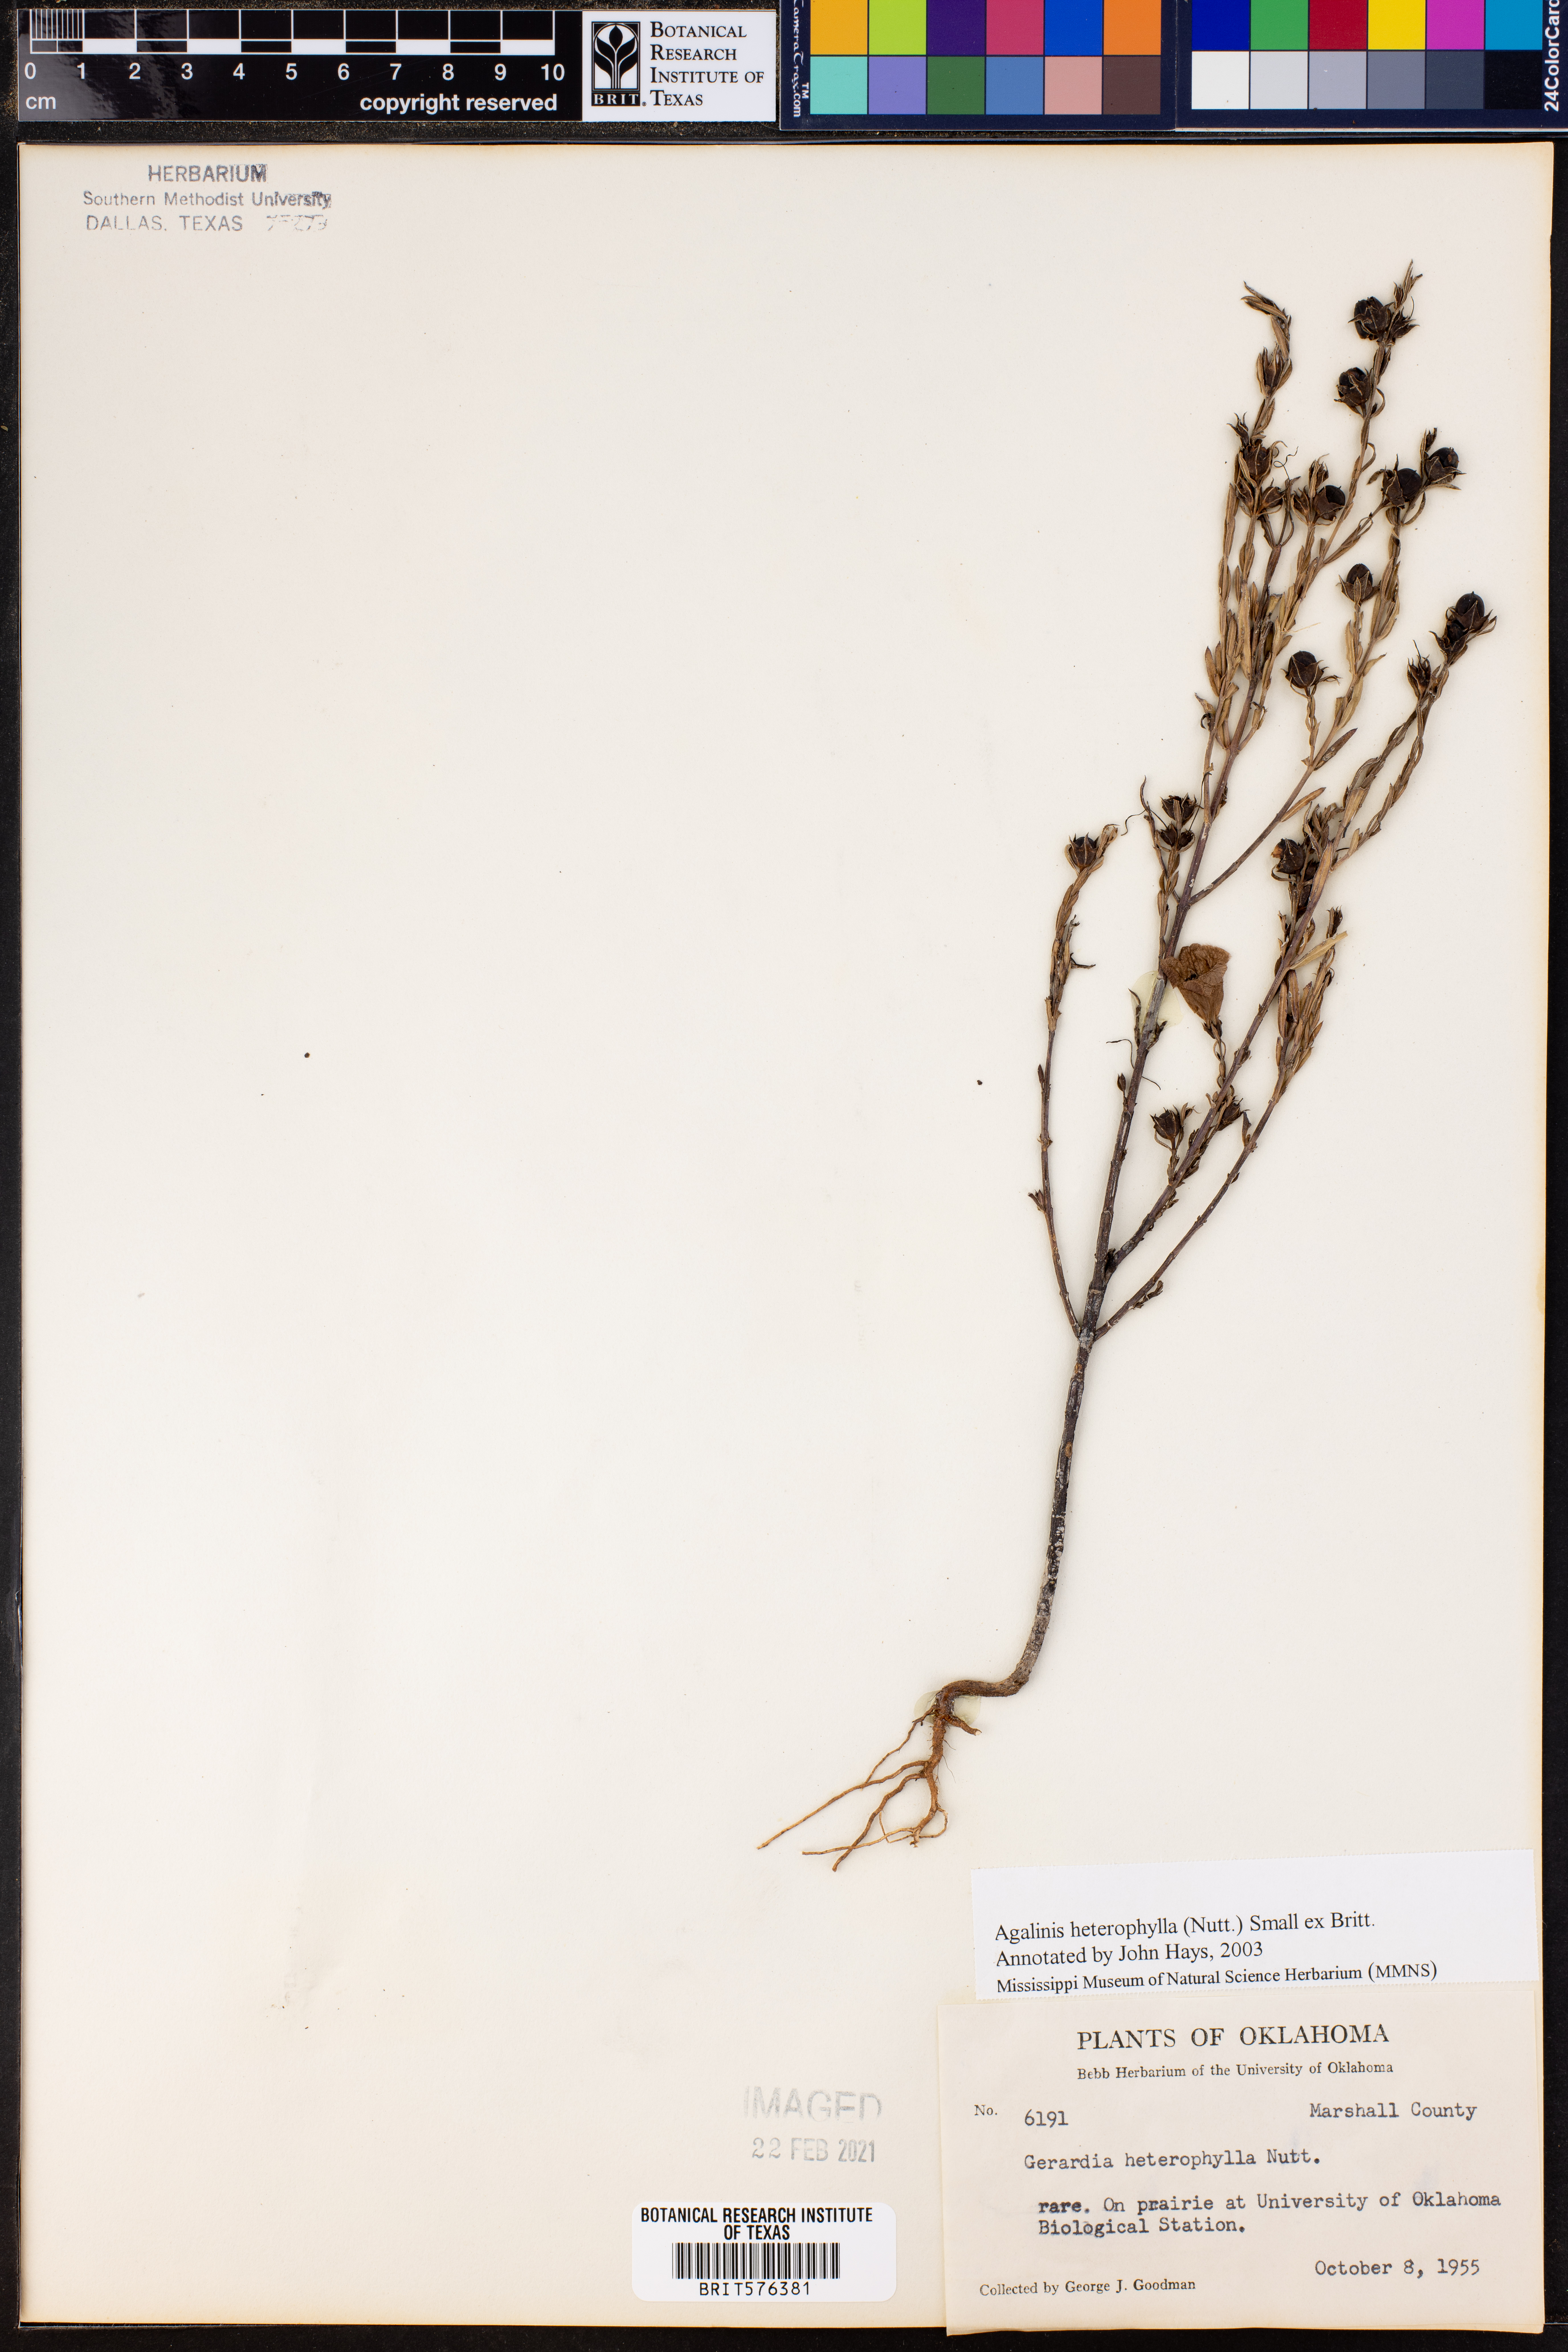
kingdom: Plantae
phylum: Tracheophyta
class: Magnoliopsida
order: Lamiales
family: Orobanchaceae
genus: Agalinis
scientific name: Agalinis heterophylla
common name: Prairie agalinis
